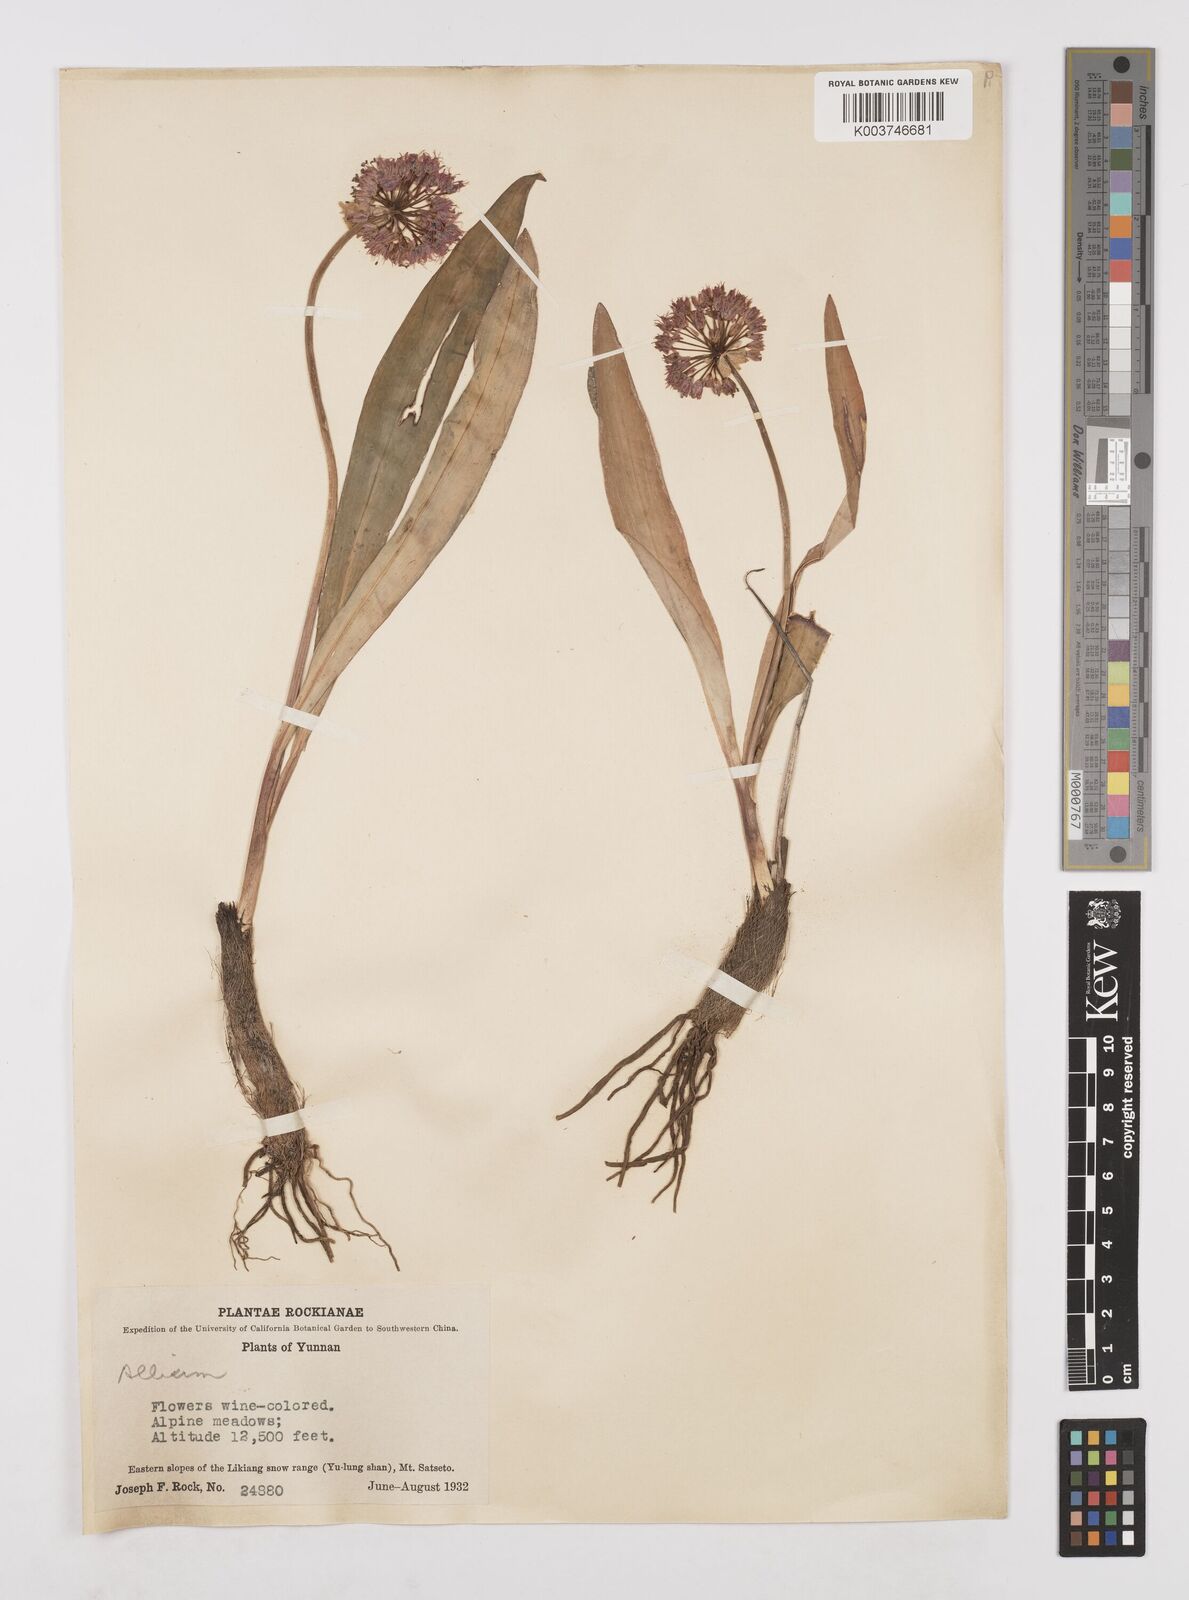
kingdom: Plantae
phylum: Tracheophyta
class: Liliopsida
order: Asparagales
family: Amaryllidaceae
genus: Allium
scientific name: Allium prattii
